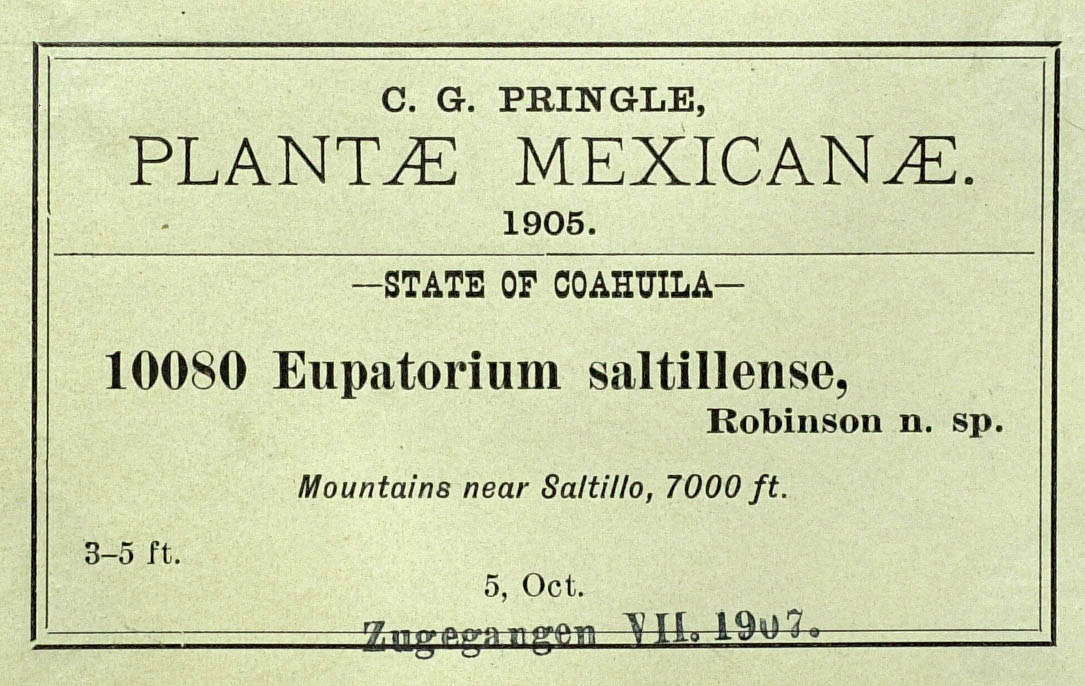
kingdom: Plantae
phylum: Tracheophyta
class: Magnoliopsida
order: Asterales
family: Asteraceae
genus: Ageratina
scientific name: Ageratina saltillensis
